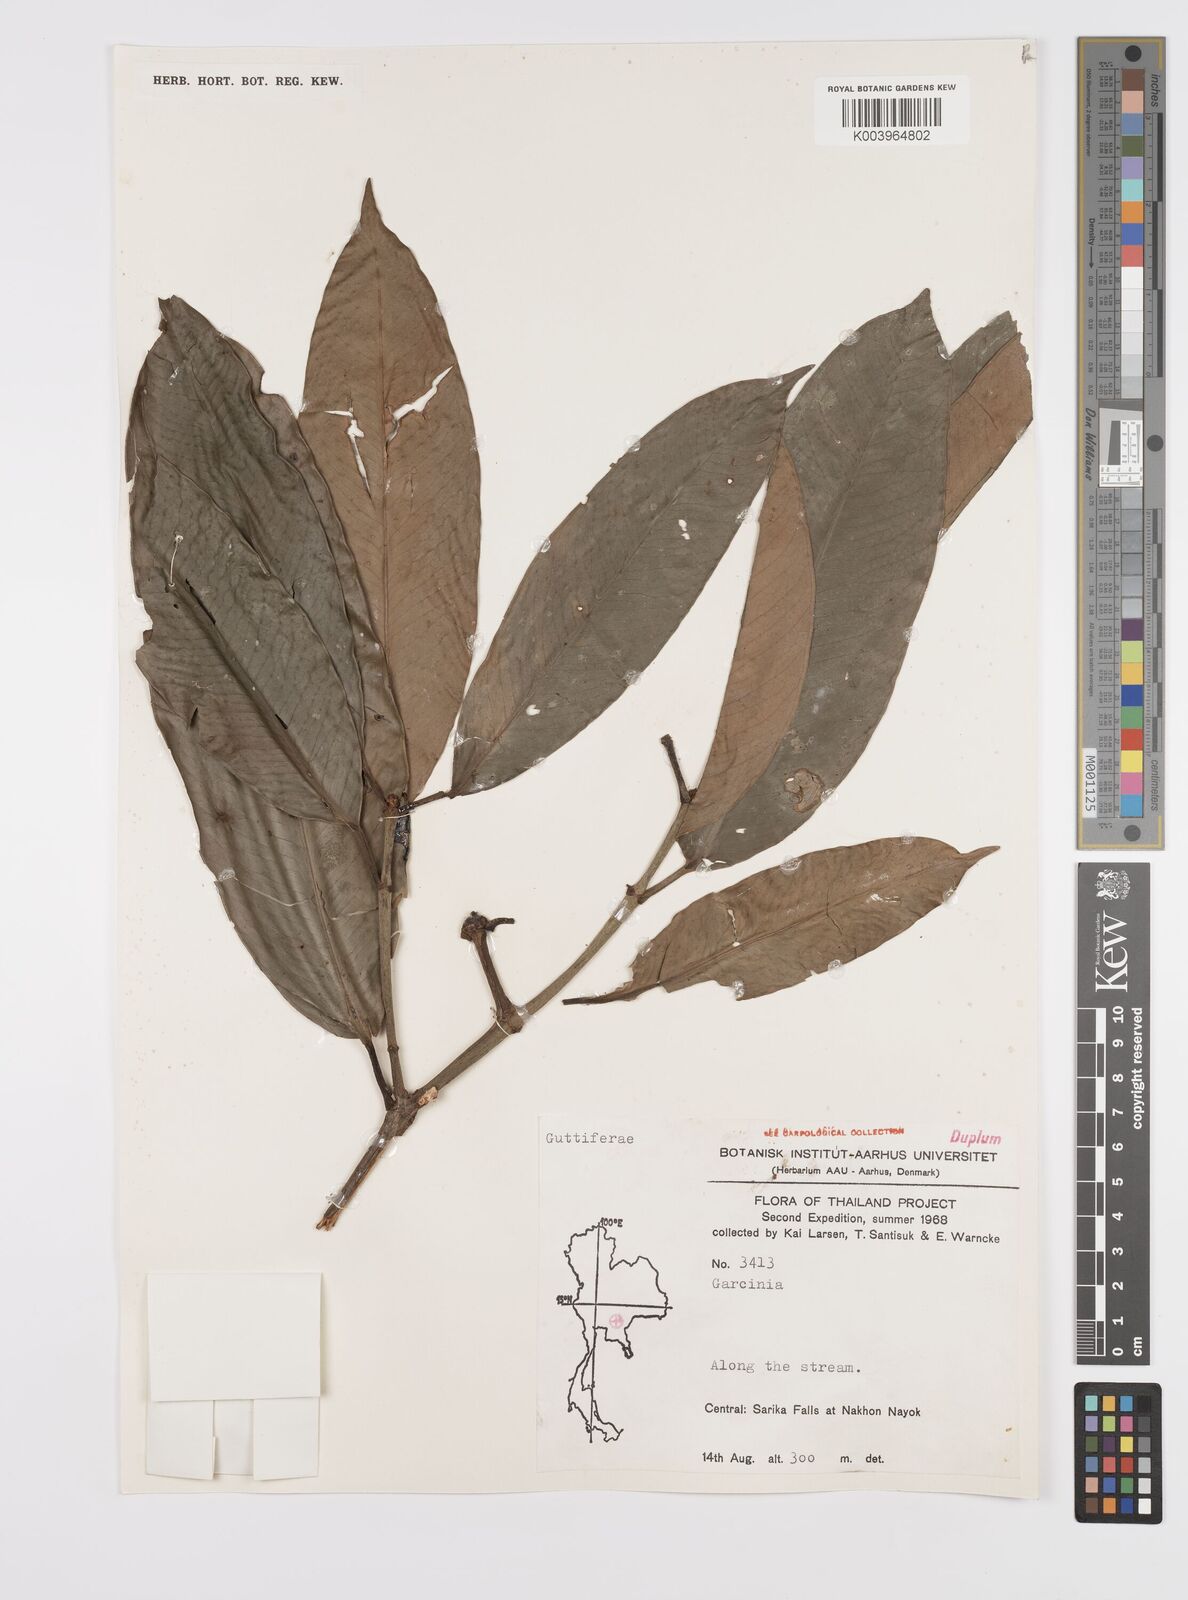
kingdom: Plantae
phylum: Tracheophyta
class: Magnoliopsida
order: Malpighiales
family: Clusiaceae
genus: Garcinia
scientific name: Garcinia
